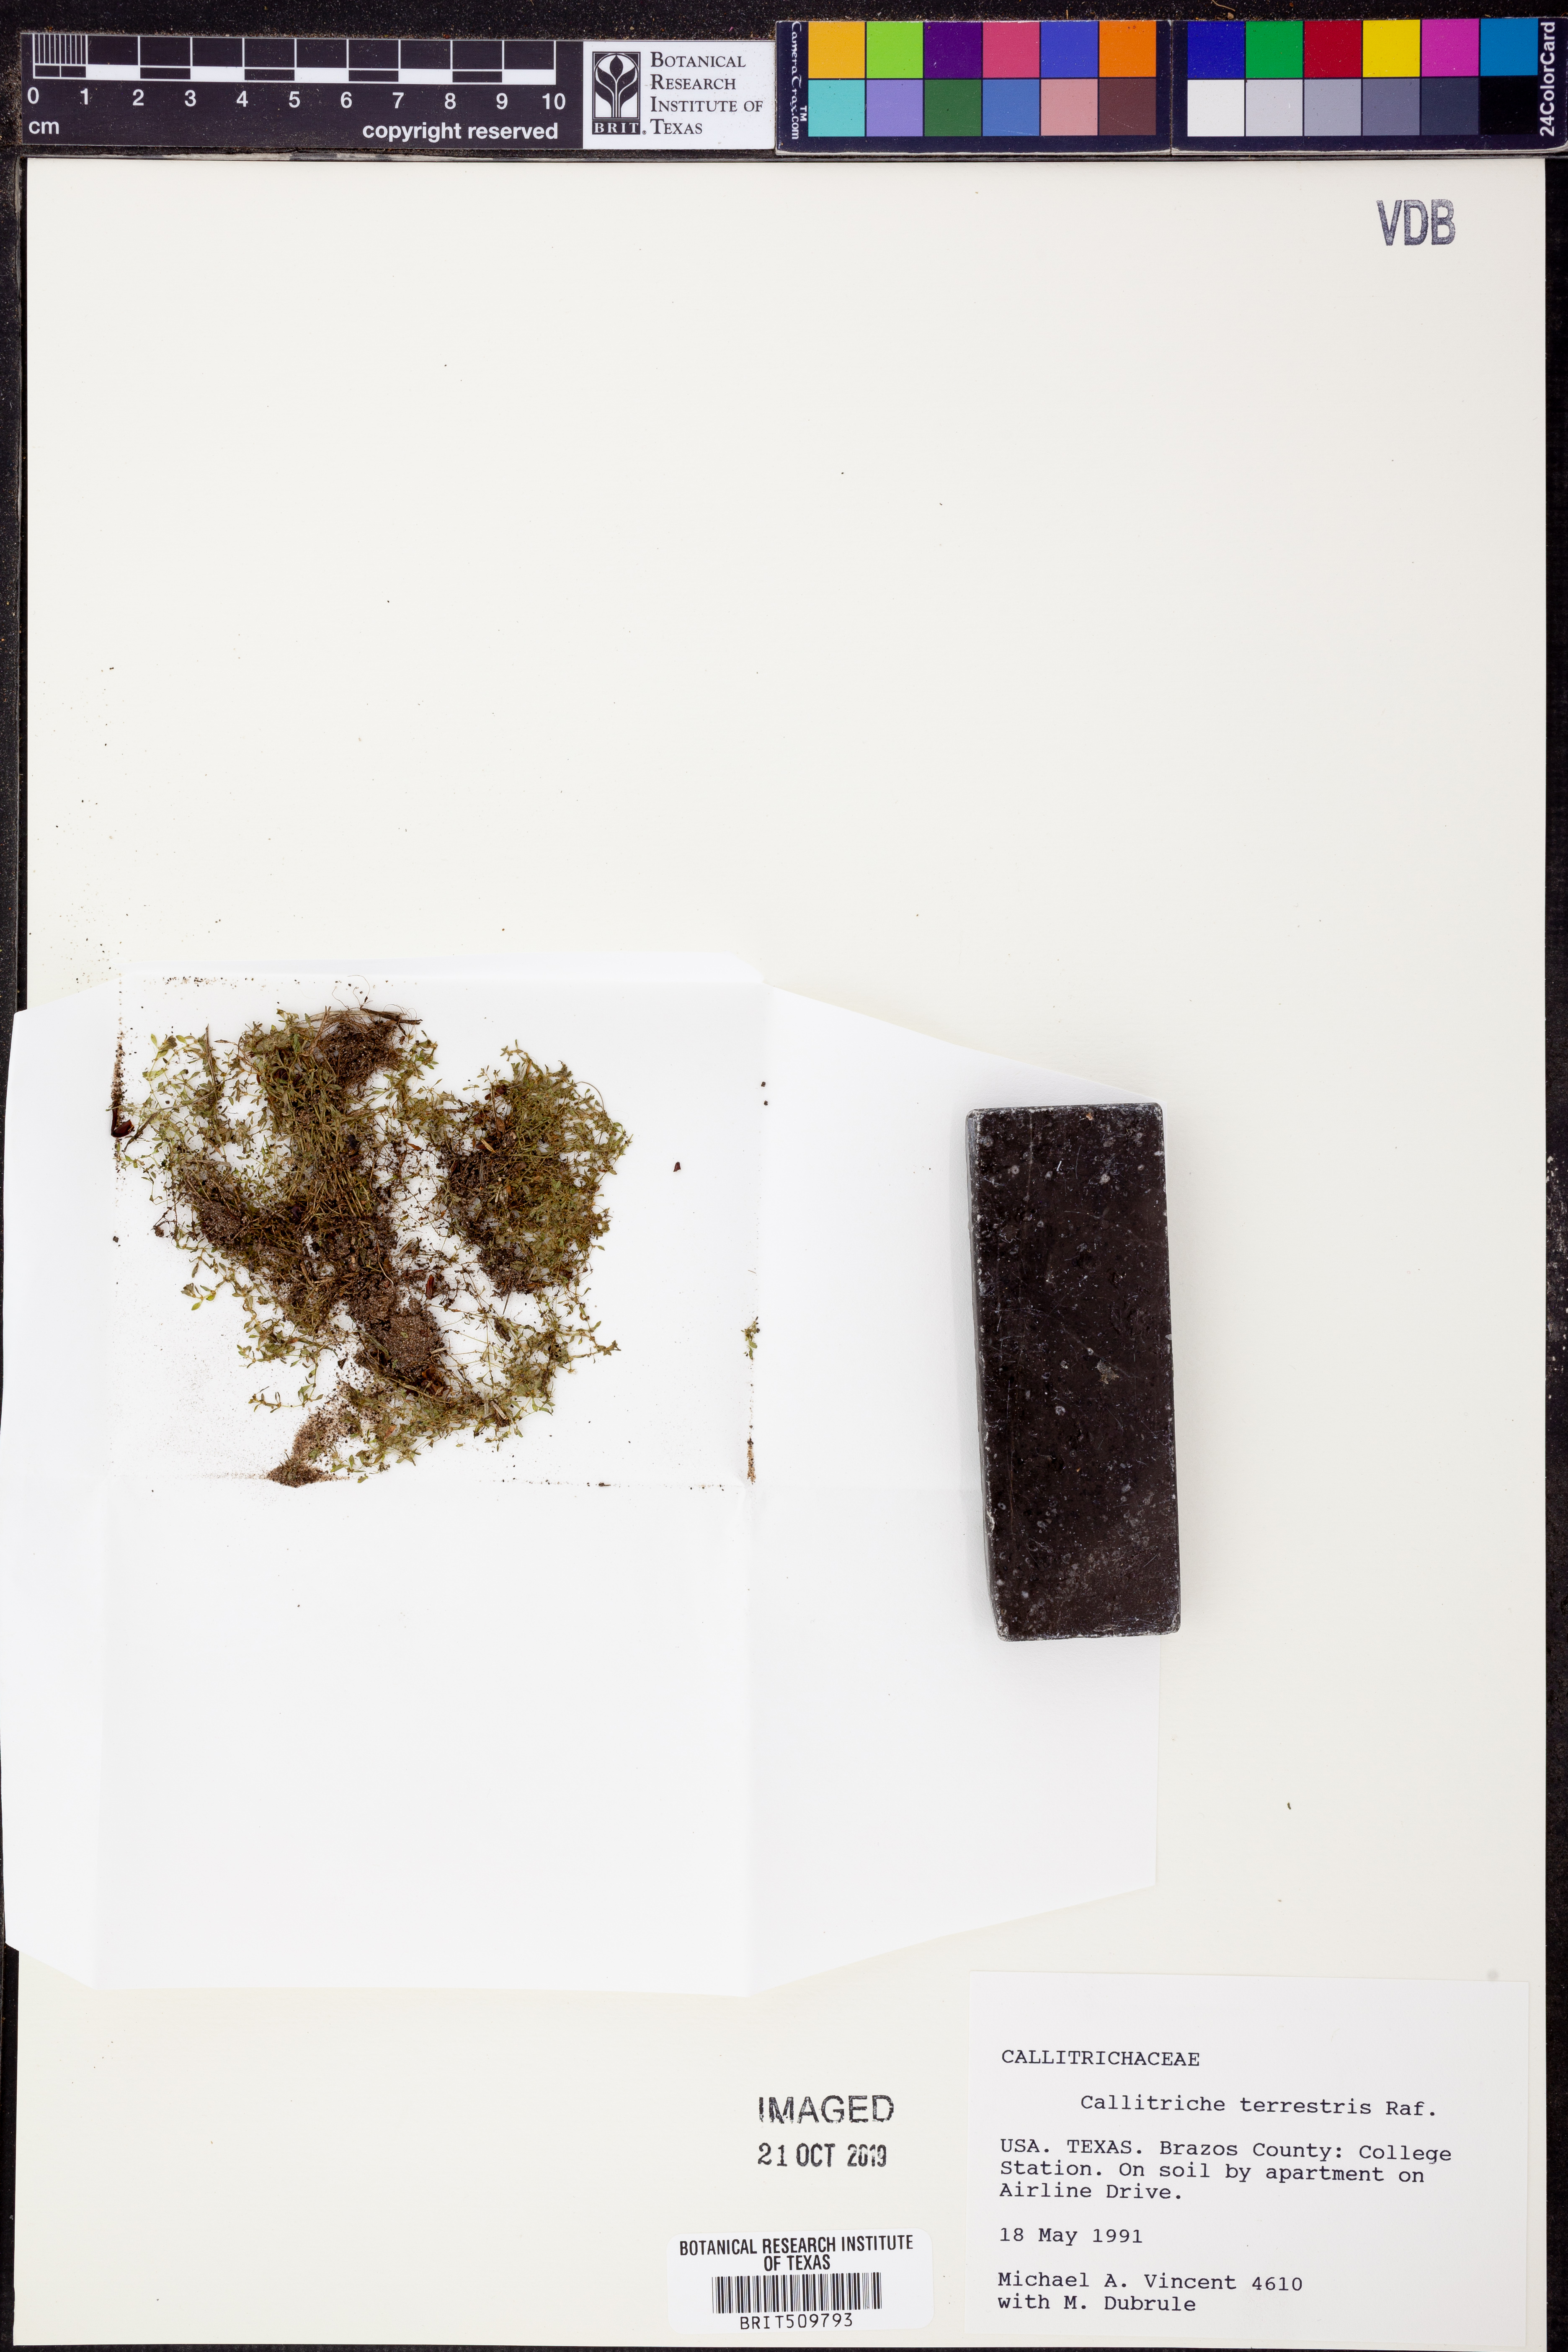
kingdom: Plantae
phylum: Tracheophyta
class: Magnoliopsida
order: Lamiales
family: Plantaginaceae
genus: Callitriche
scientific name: Callitriche terrestris
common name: Terrestrial water-starwort
